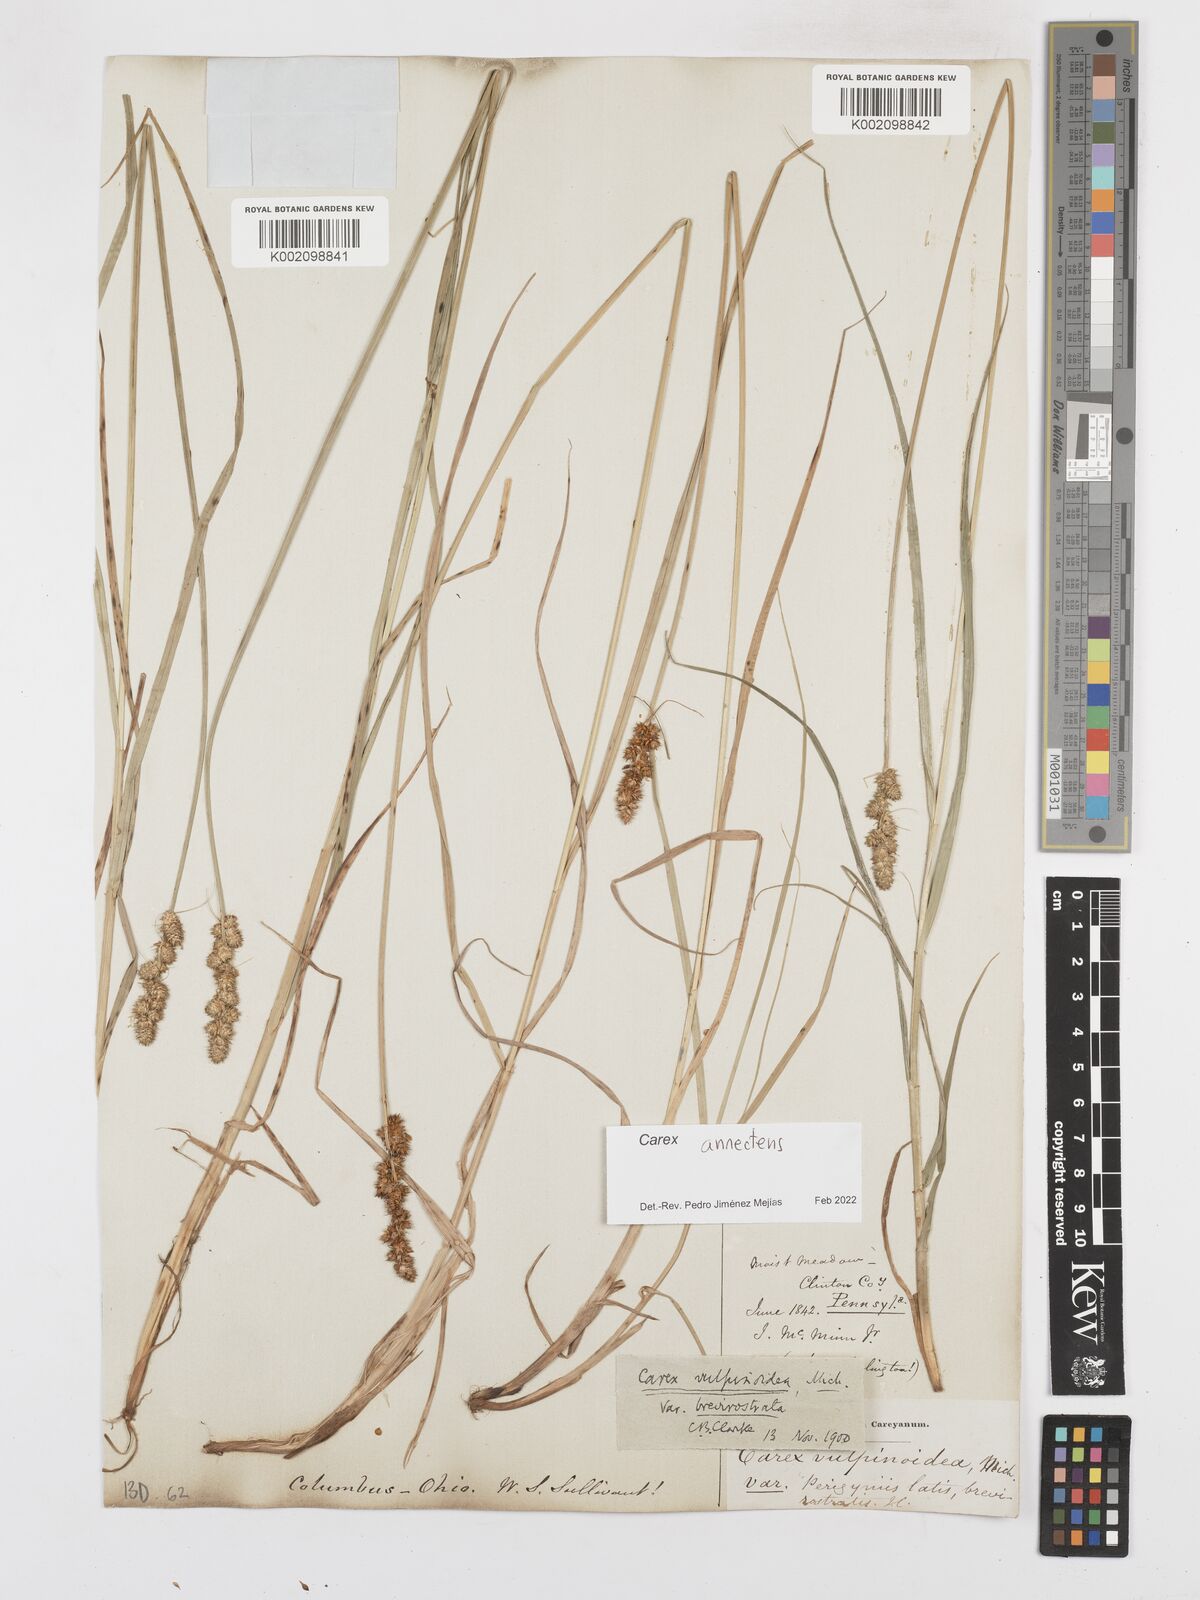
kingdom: Plantae
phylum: Tracheophyta
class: Liliopsida
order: Poales
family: Cyperaceae
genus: Carex
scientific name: Carex annectens
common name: Large fox sedge
